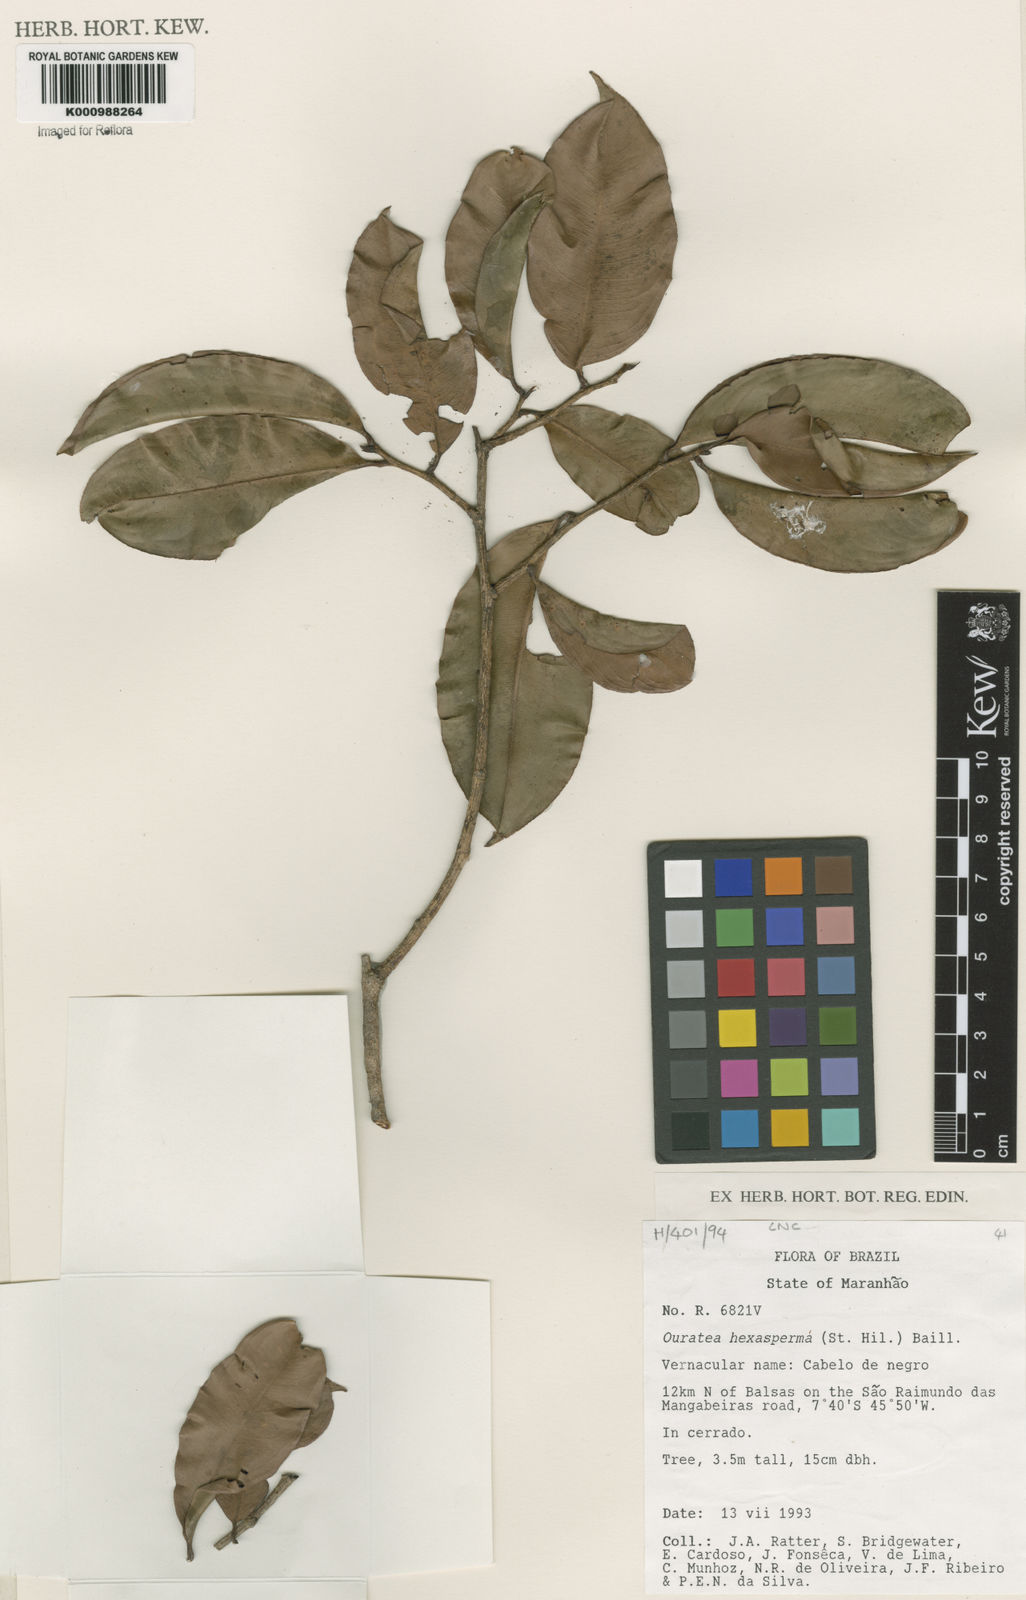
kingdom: Plantae
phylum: Tracheophyta
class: Magnoliopsida
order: Malpighiales
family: Ochnaceae
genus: Ouratea
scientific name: Ouratea hexasperma
